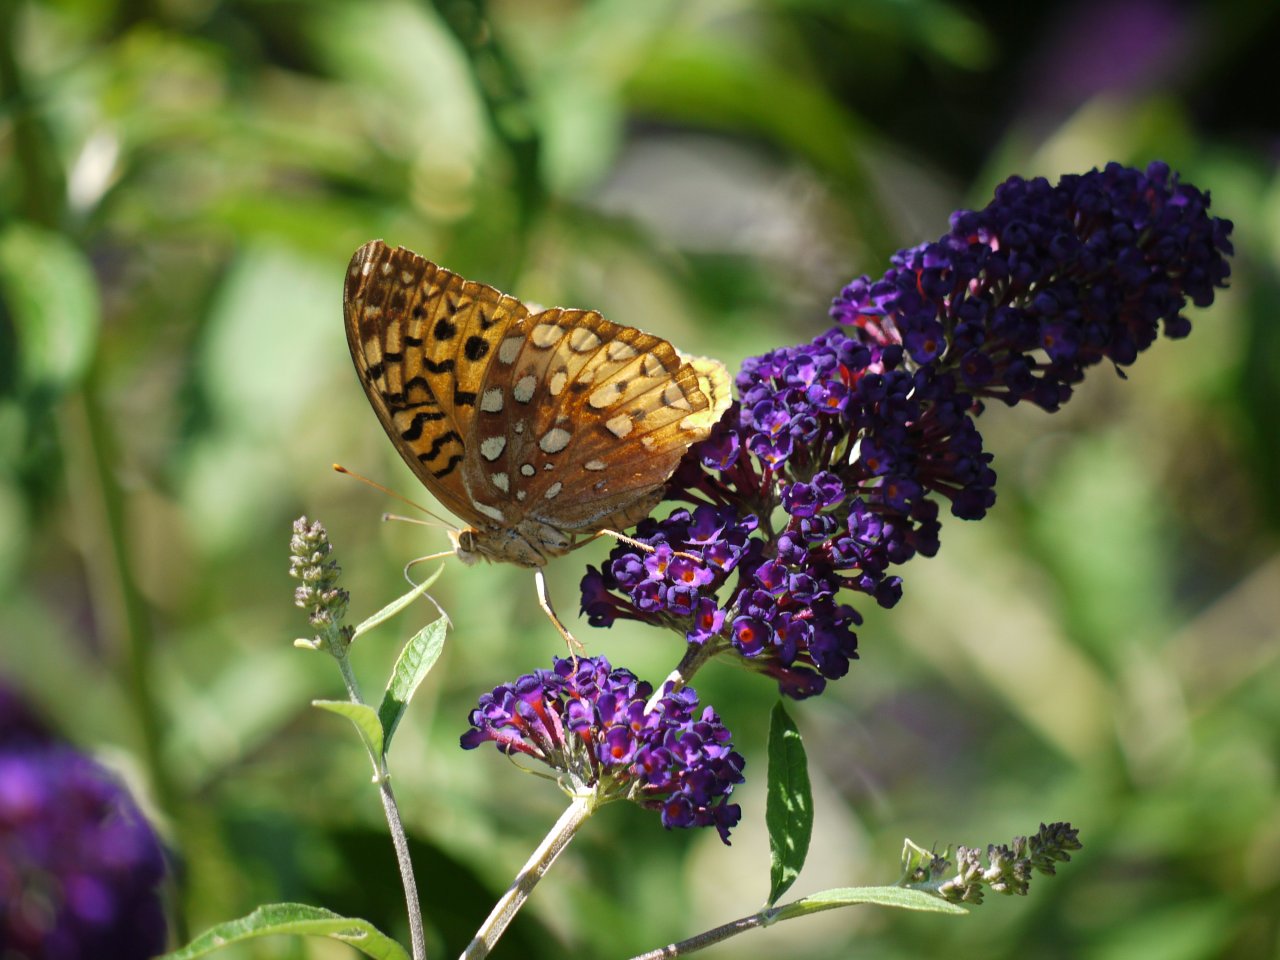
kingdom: Animalia
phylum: Arthropoda
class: Insecta
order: Lepidoptera
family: Nymphalidae
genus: Speyeria
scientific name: Speyeria cybele
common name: Great Spangled Fritillary
